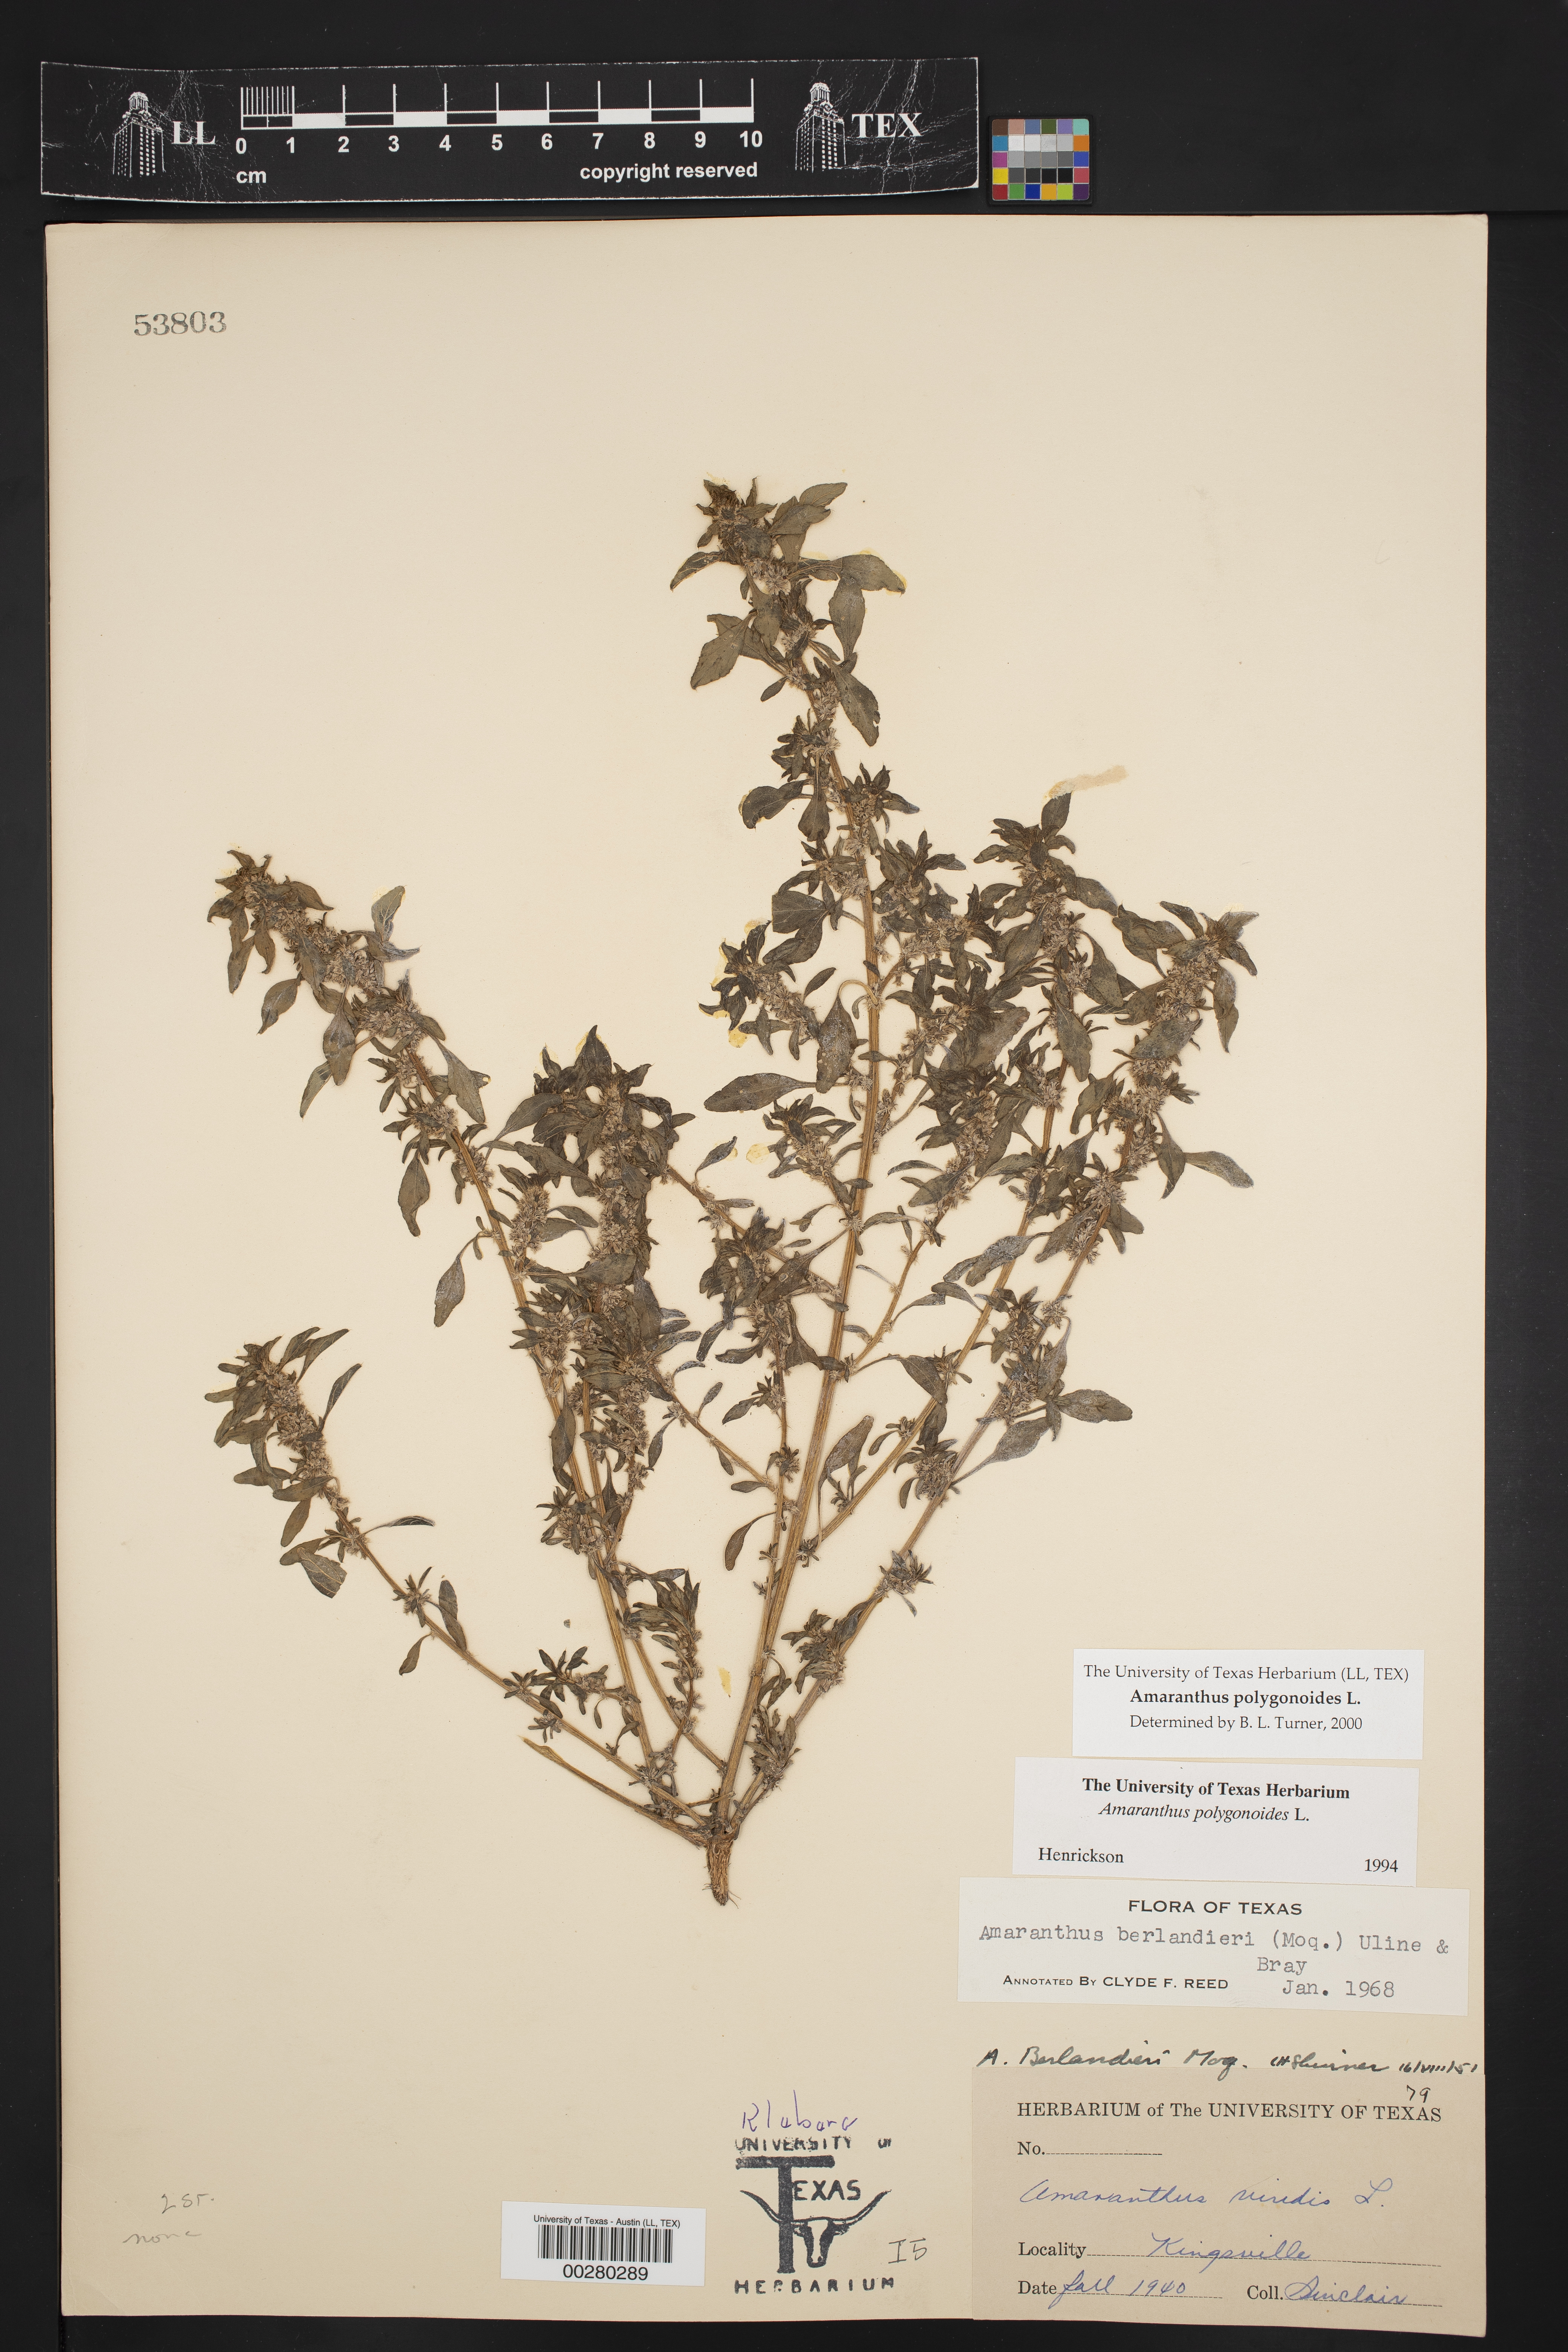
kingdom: Plantae
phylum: Tracheophyta
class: Magnoliopsida
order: Caryophyllales
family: Amaranthaceae
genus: Amaranthus
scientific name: Amaranthus polygonoides
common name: Tropical amaranth
